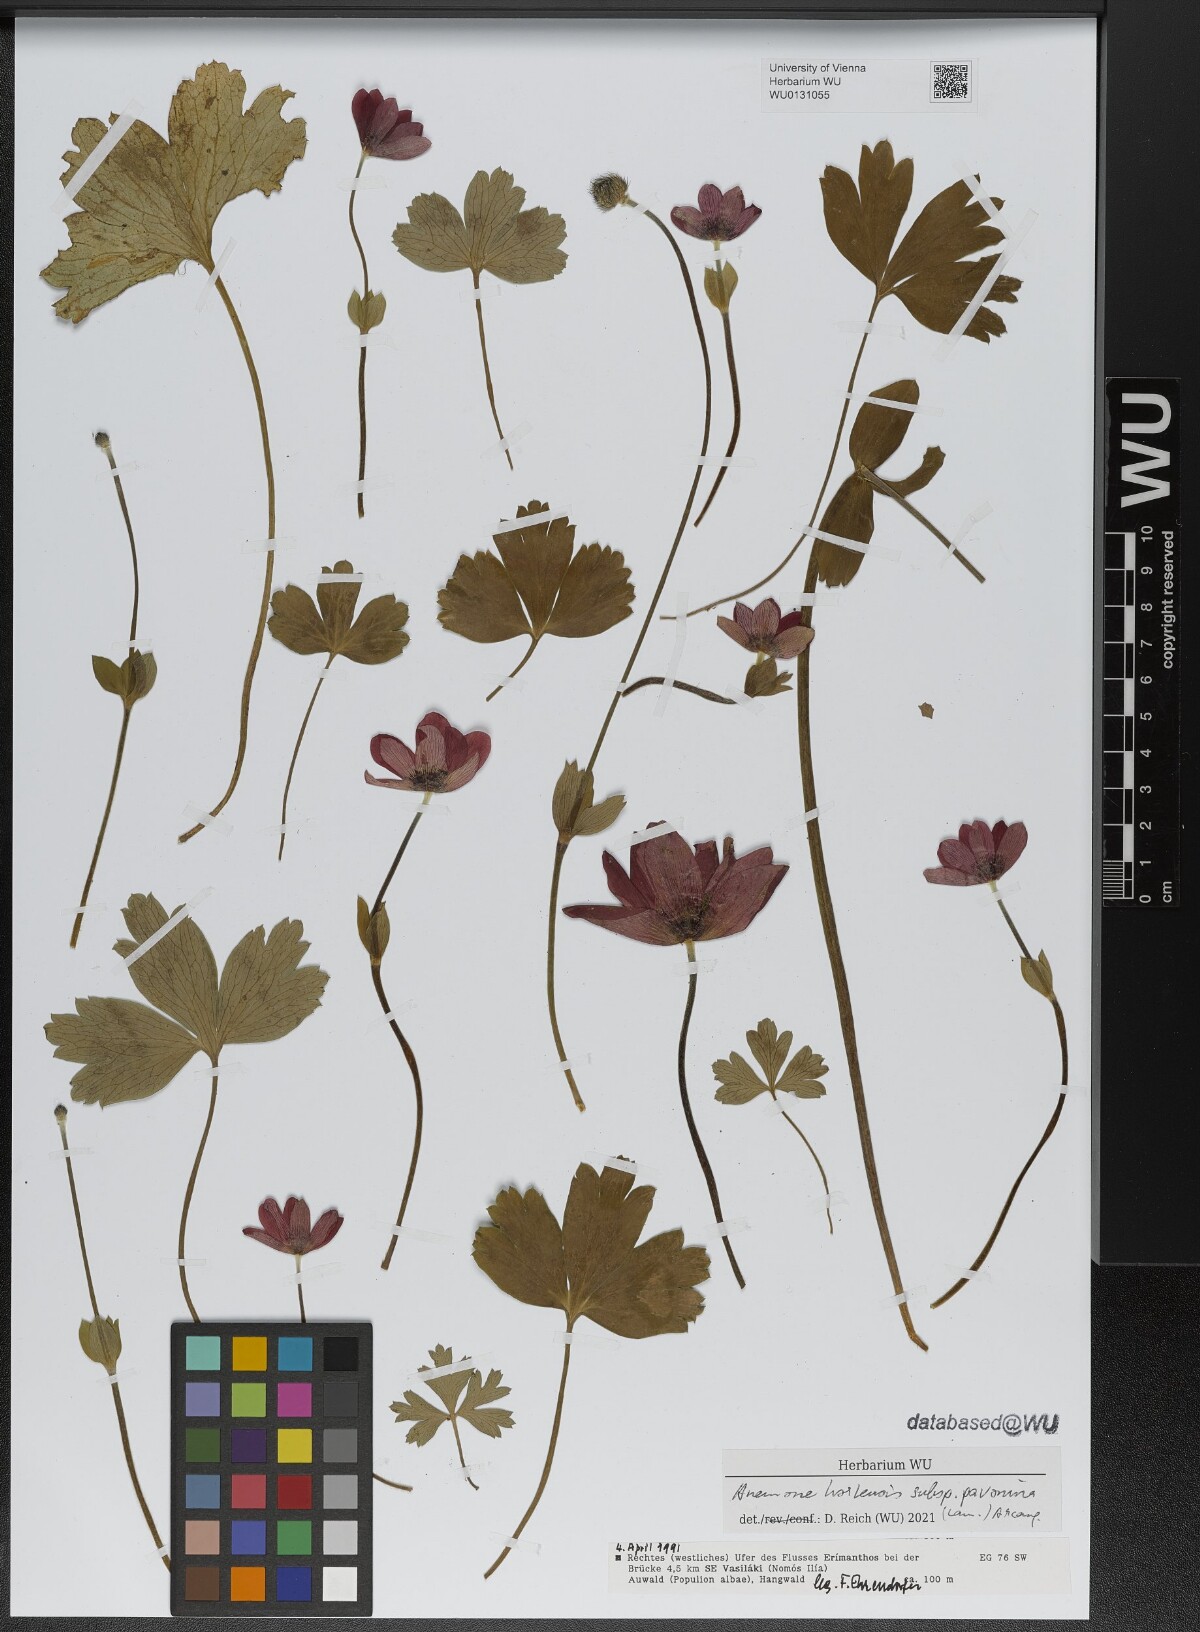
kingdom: Plantae
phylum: Tracheophyta
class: Magnoliopsida
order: Ranunculales
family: Ranunculaceae
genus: Anemone
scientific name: Anemone pavonina
